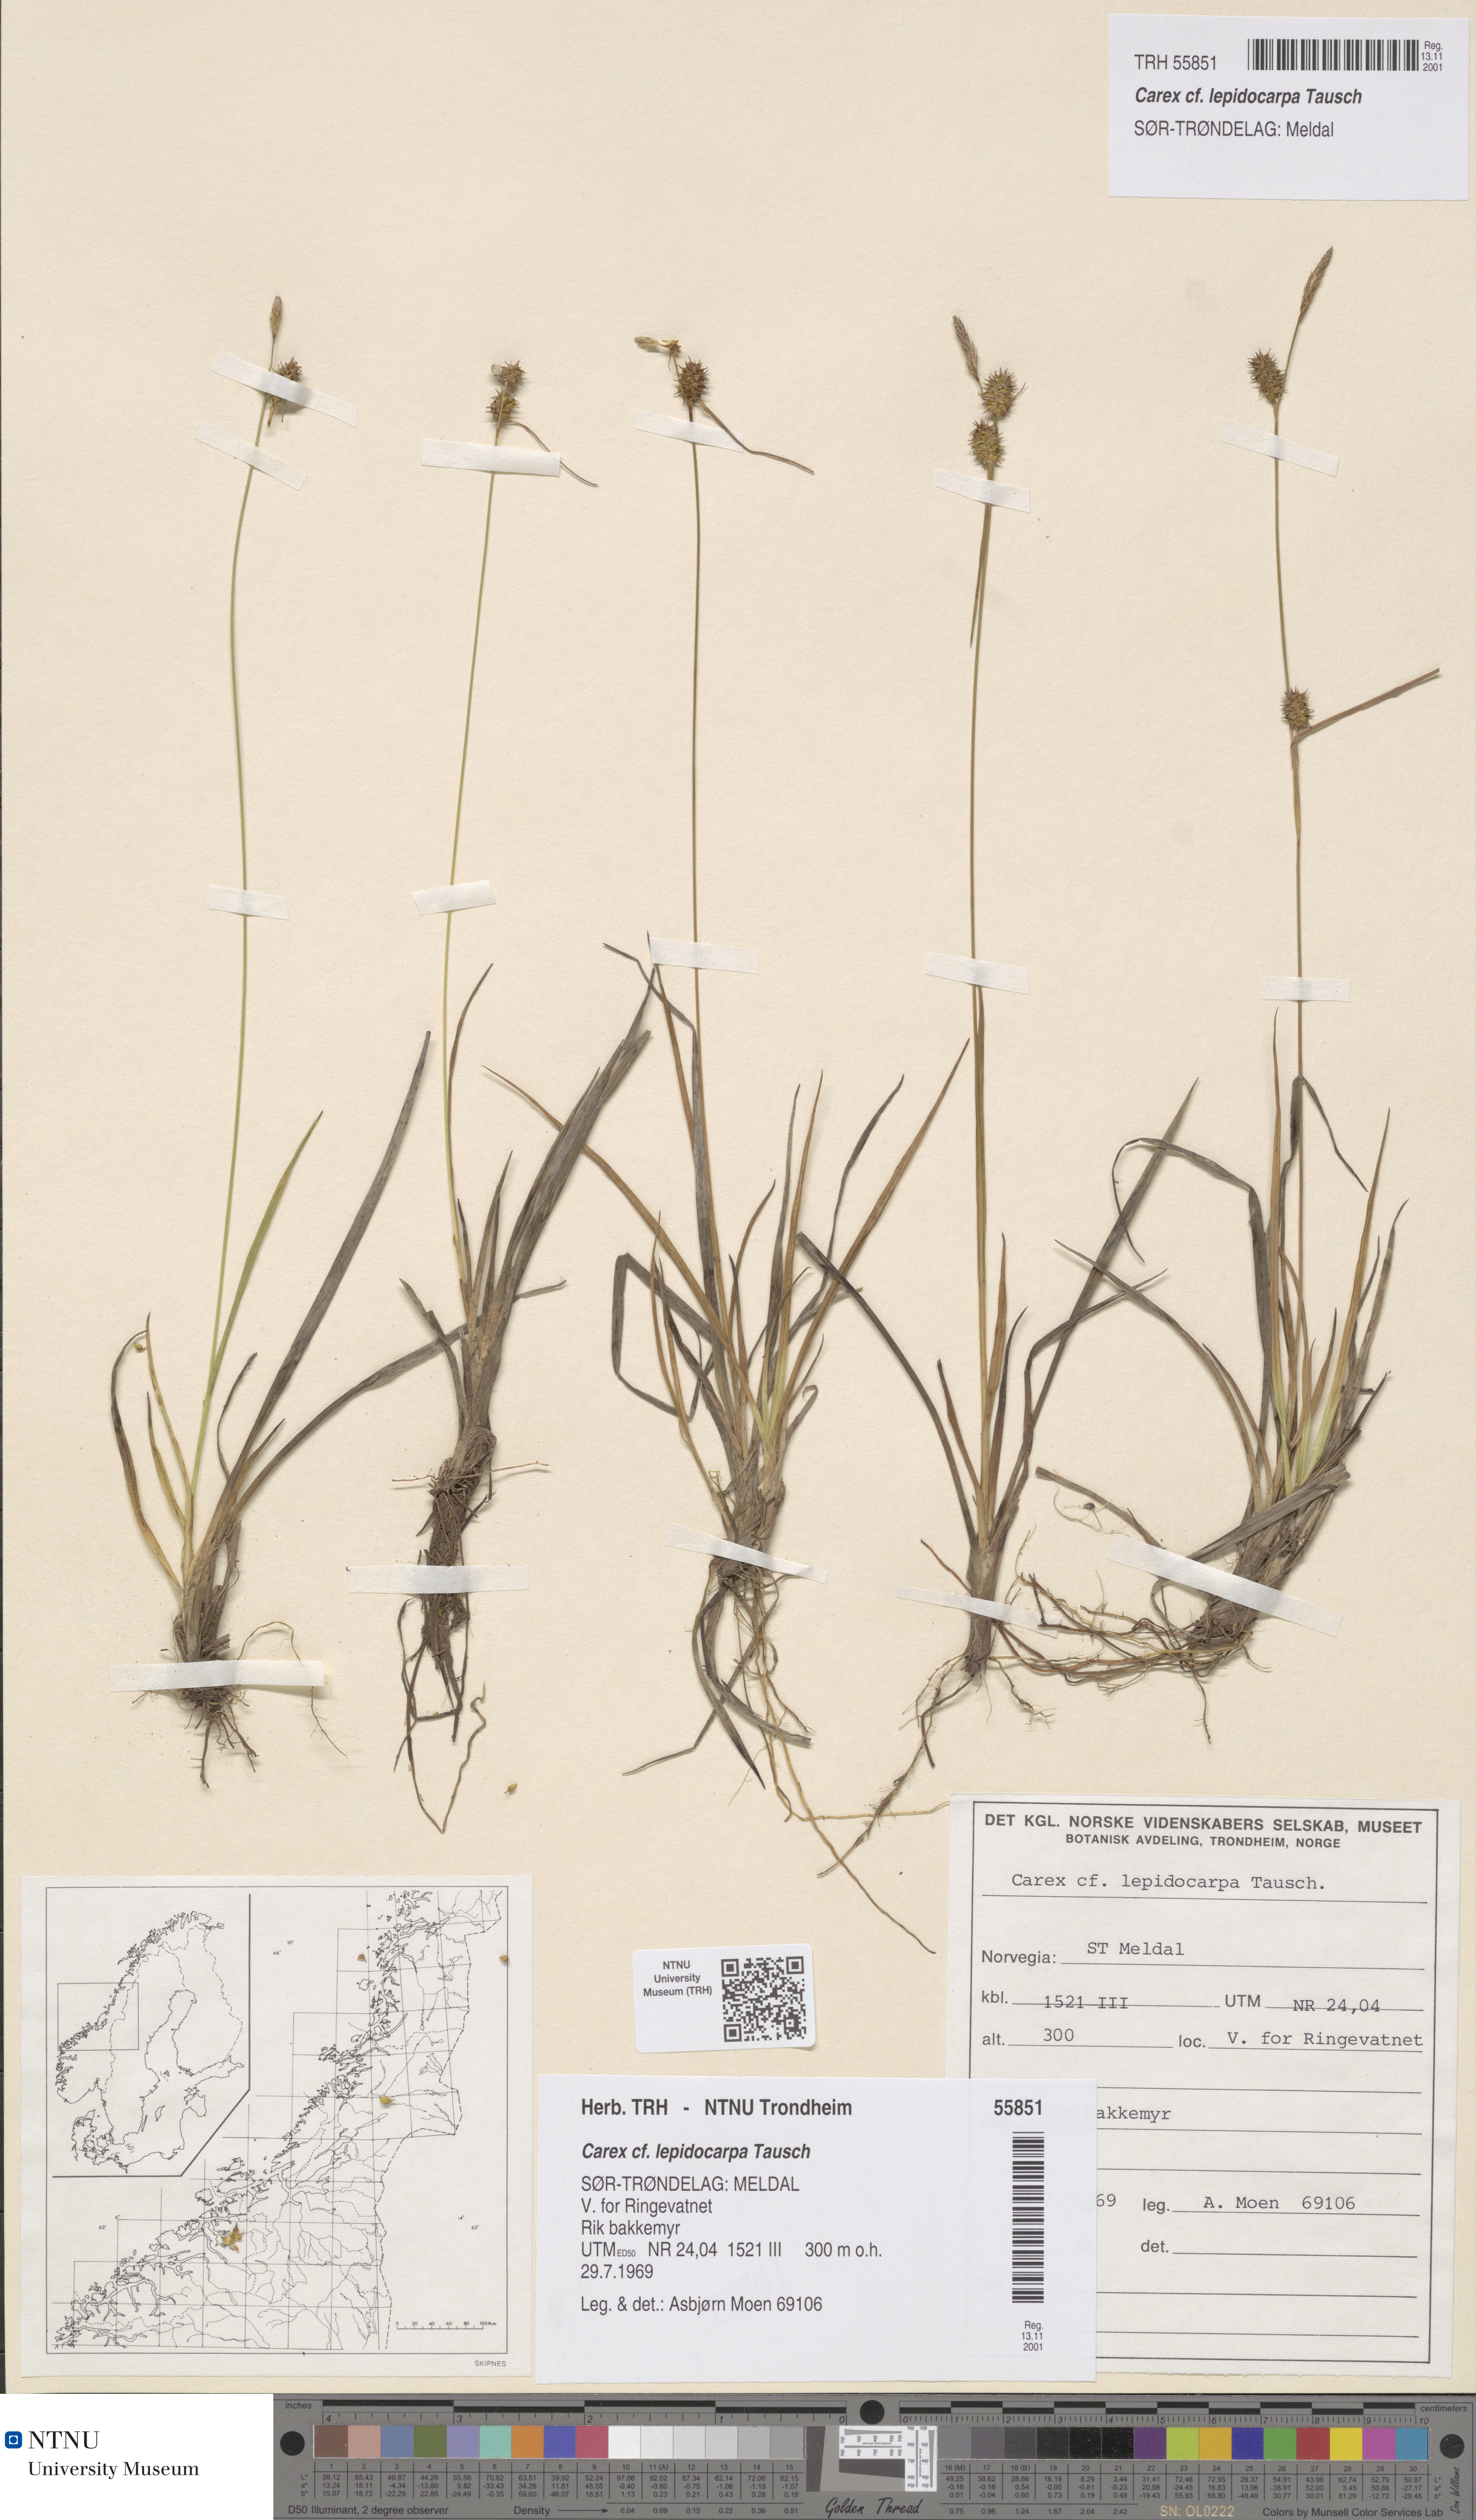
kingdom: Plantae
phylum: Tracheophyta
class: Liliopsida
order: Poales
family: Cyperaceae
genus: Carex
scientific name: Carex lepidocarpa
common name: Long-stalked yellow-sedge
